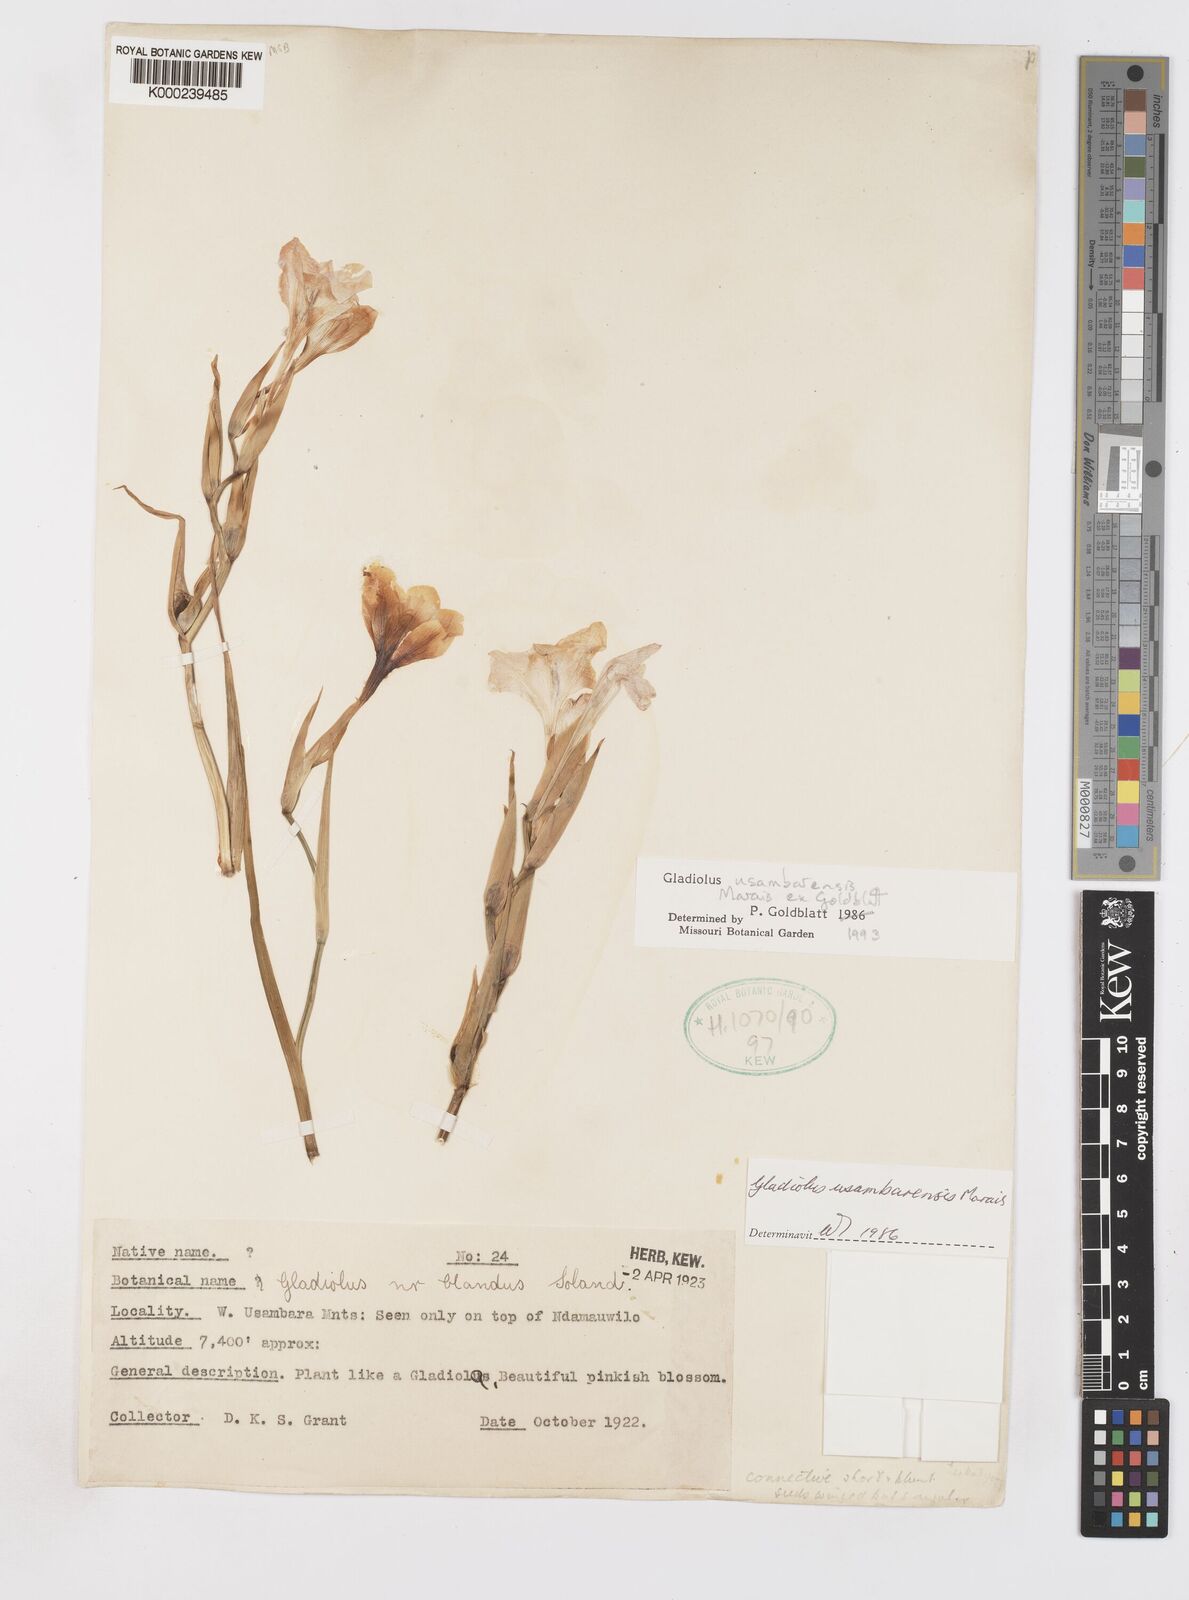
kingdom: Plantae
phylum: Tracheophyta
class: Liliopsida
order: Asparagales
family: Iridaceae
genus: Gladiolus
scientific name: Gladiolus usambarensis
